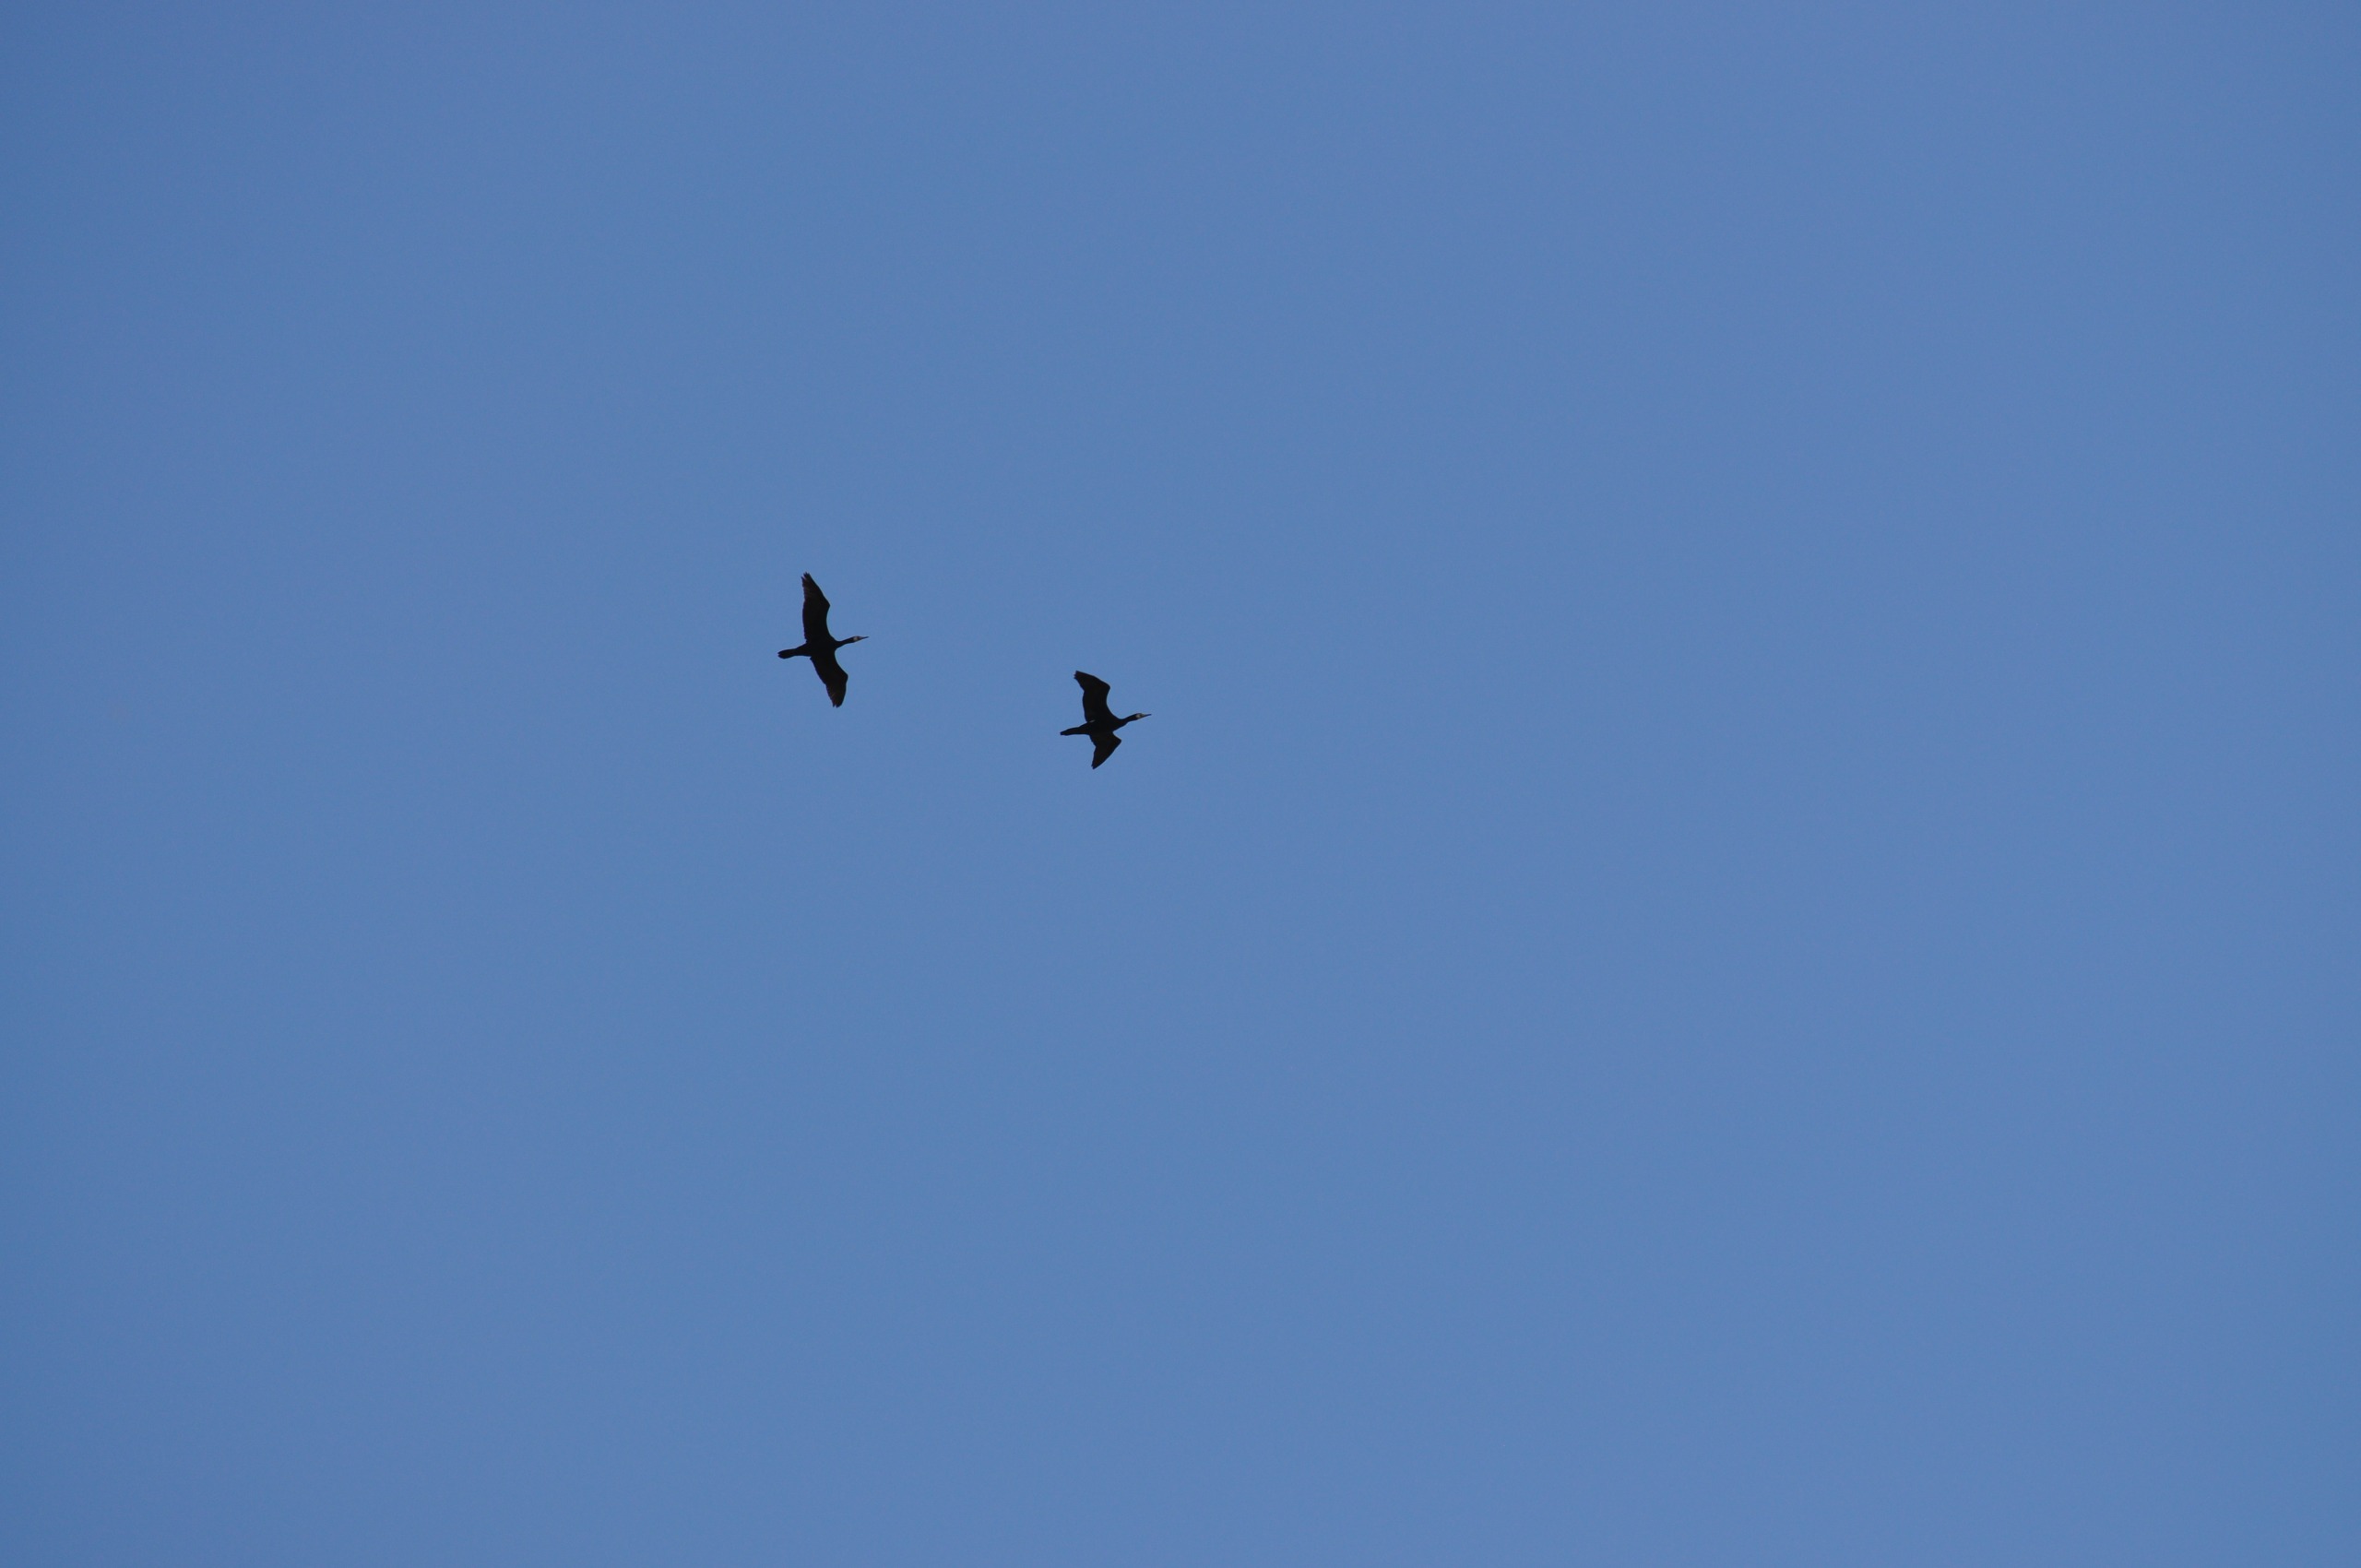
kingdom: Animalia
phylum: Chordata
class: Aves
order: Suliformes
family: Phalacrocoracidae
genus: Phalacrocorax
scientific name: Phalacrocorax carbo
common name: Skarv
